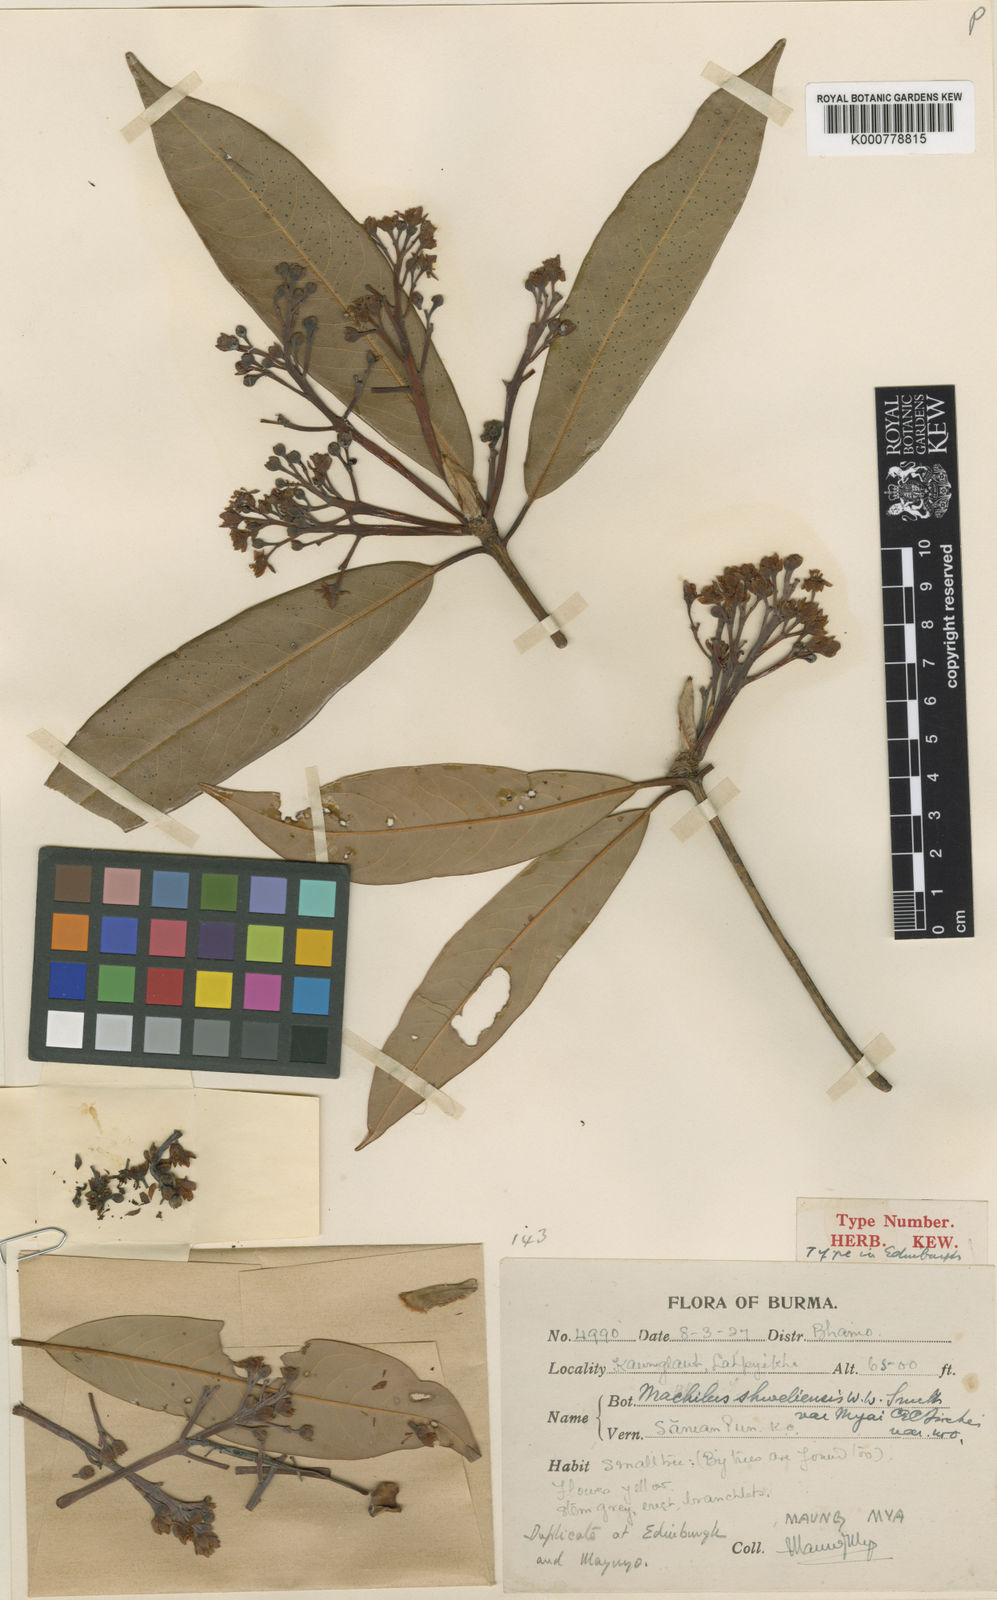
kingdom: Plantae
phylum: Tracheophyta
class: Magnoliopsida
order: Laurales
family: Lauraceae
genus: Machilus
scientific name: Machilus shweliensis
